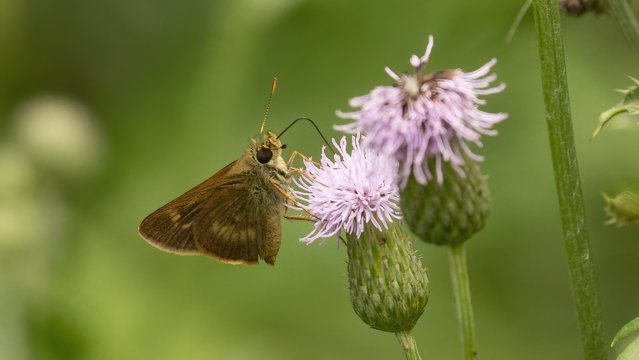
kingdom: Animalia
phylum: Arthropoda
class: Insecta
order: Lepidoptera
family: Hesperiidae
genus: Polites
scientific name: Polites egeremet
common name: Northern Broken-Dash
